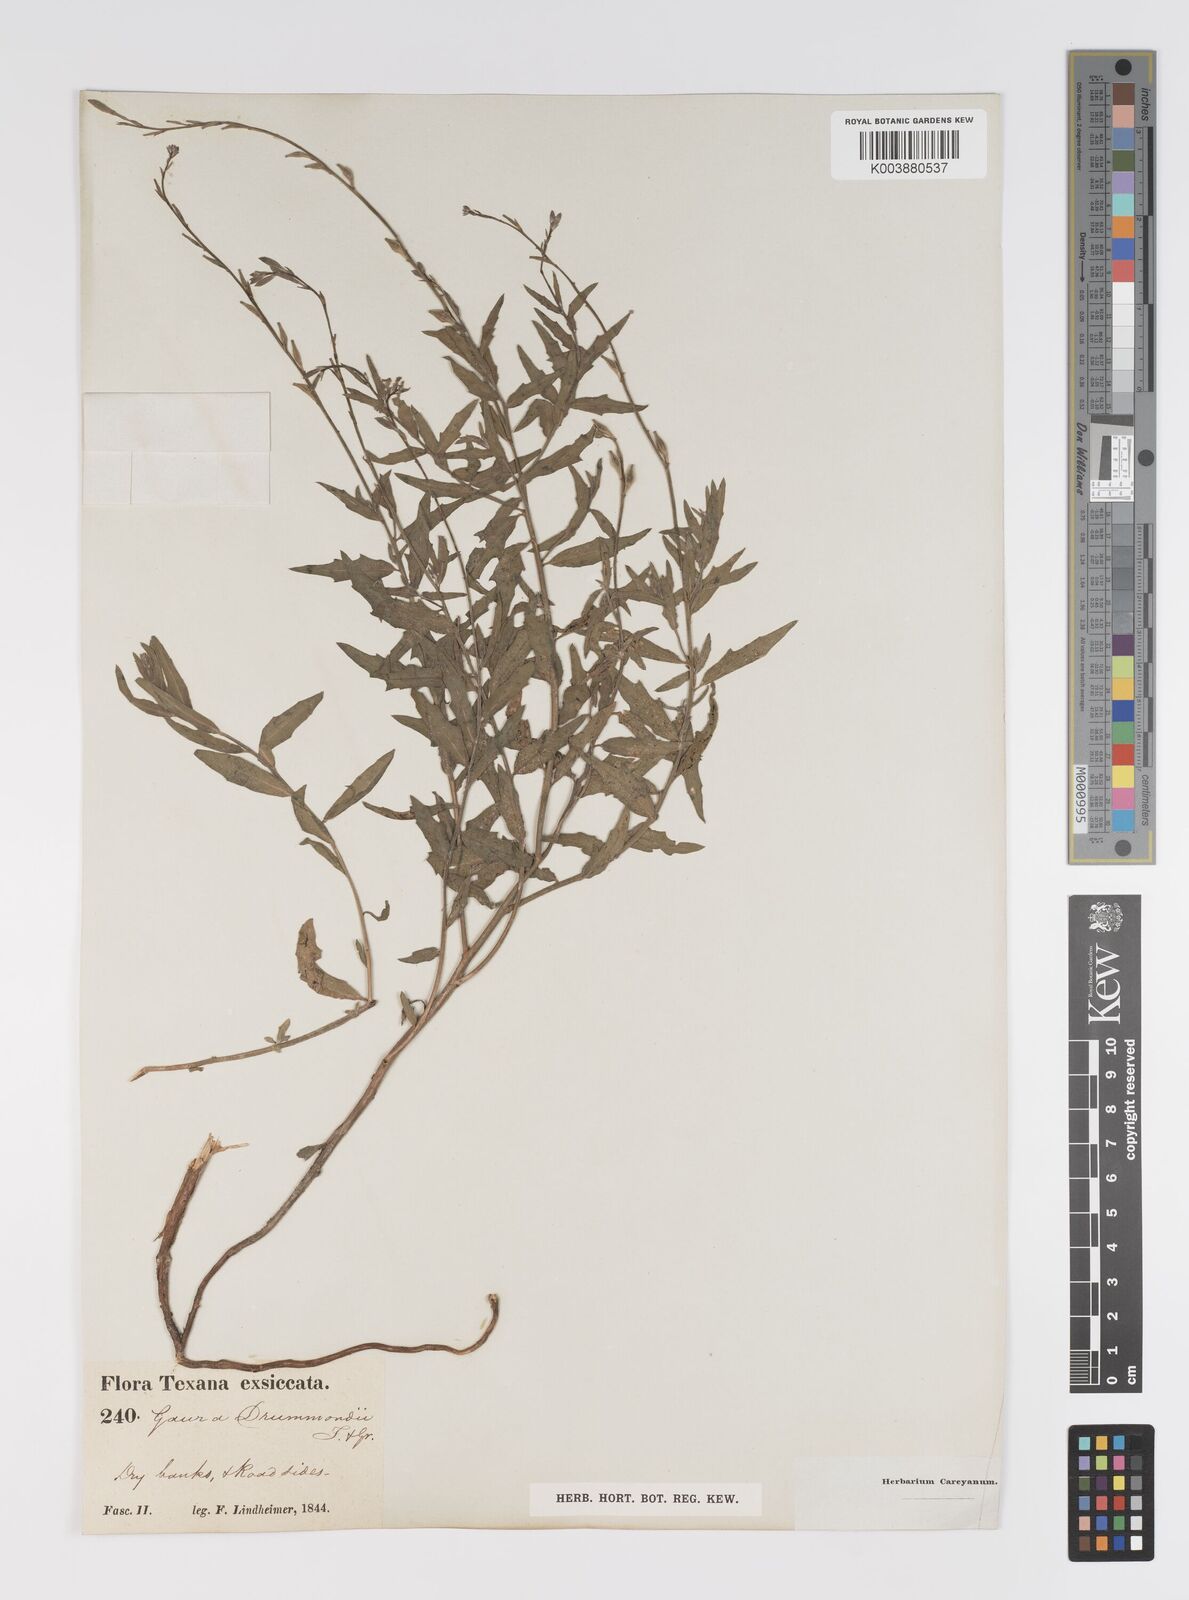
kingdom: Plantae
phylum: Tracheophyta
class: Magnoliopsida
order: Myrtales
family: Onagraceae
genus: Oenothera
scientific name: Oenothera hispida
